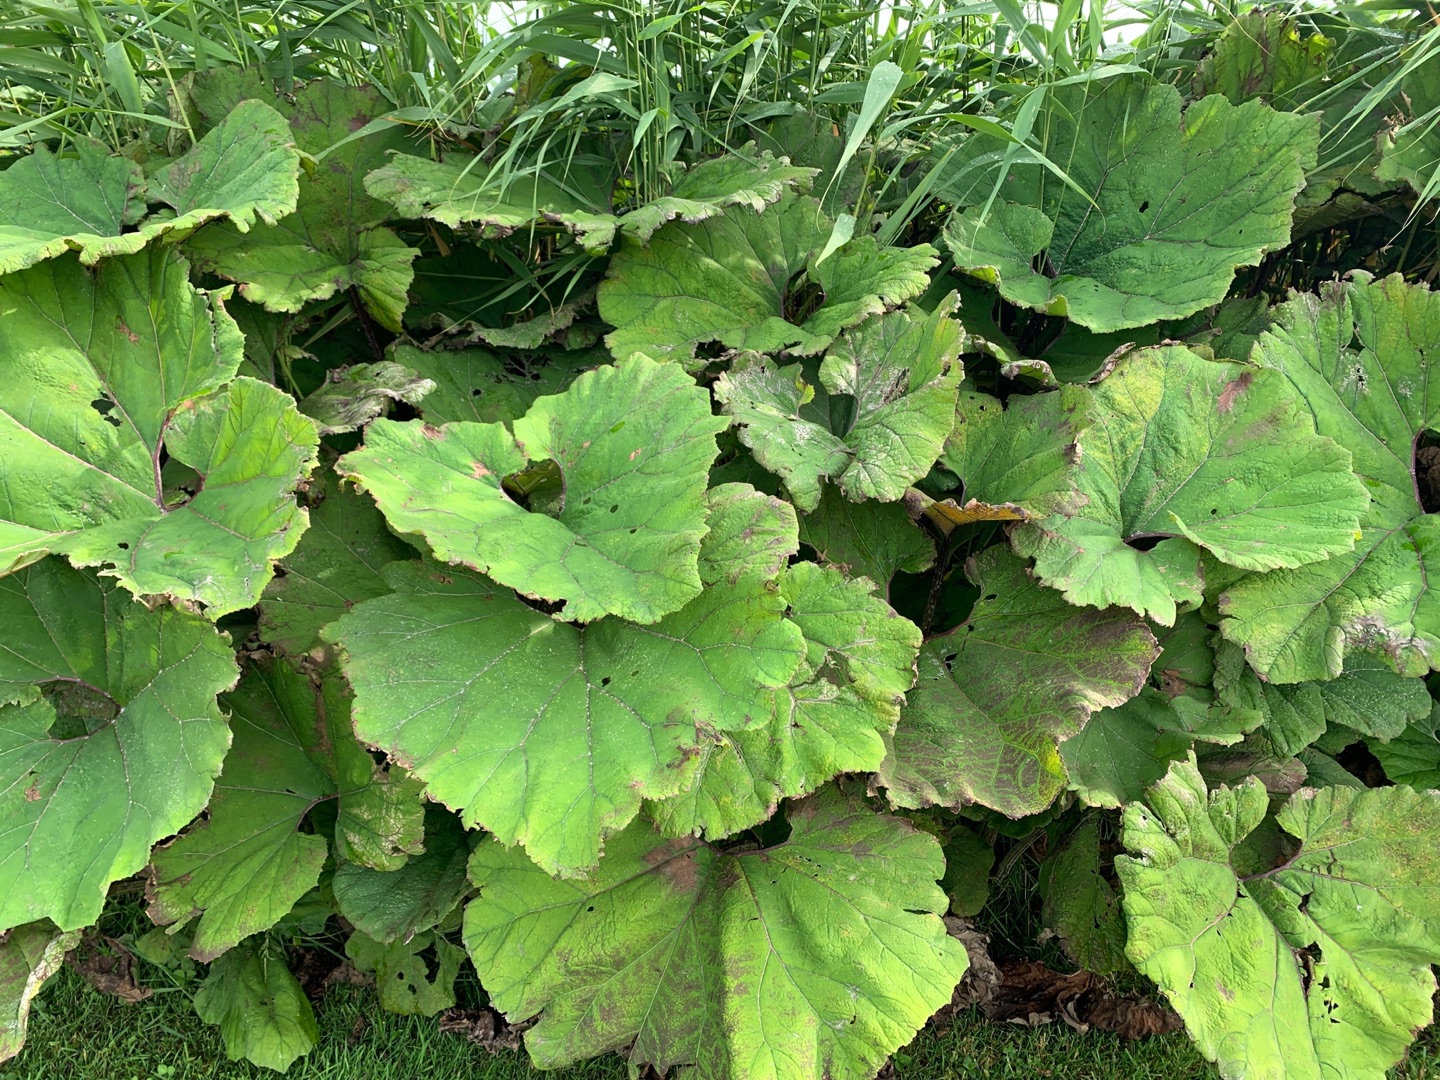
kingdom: Plantae
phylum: Tracheophyta
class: Magnoliopsida
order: Asterales
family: Asteraceae
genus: Tussilago
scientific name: Tussilago farfara
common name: Følfod
